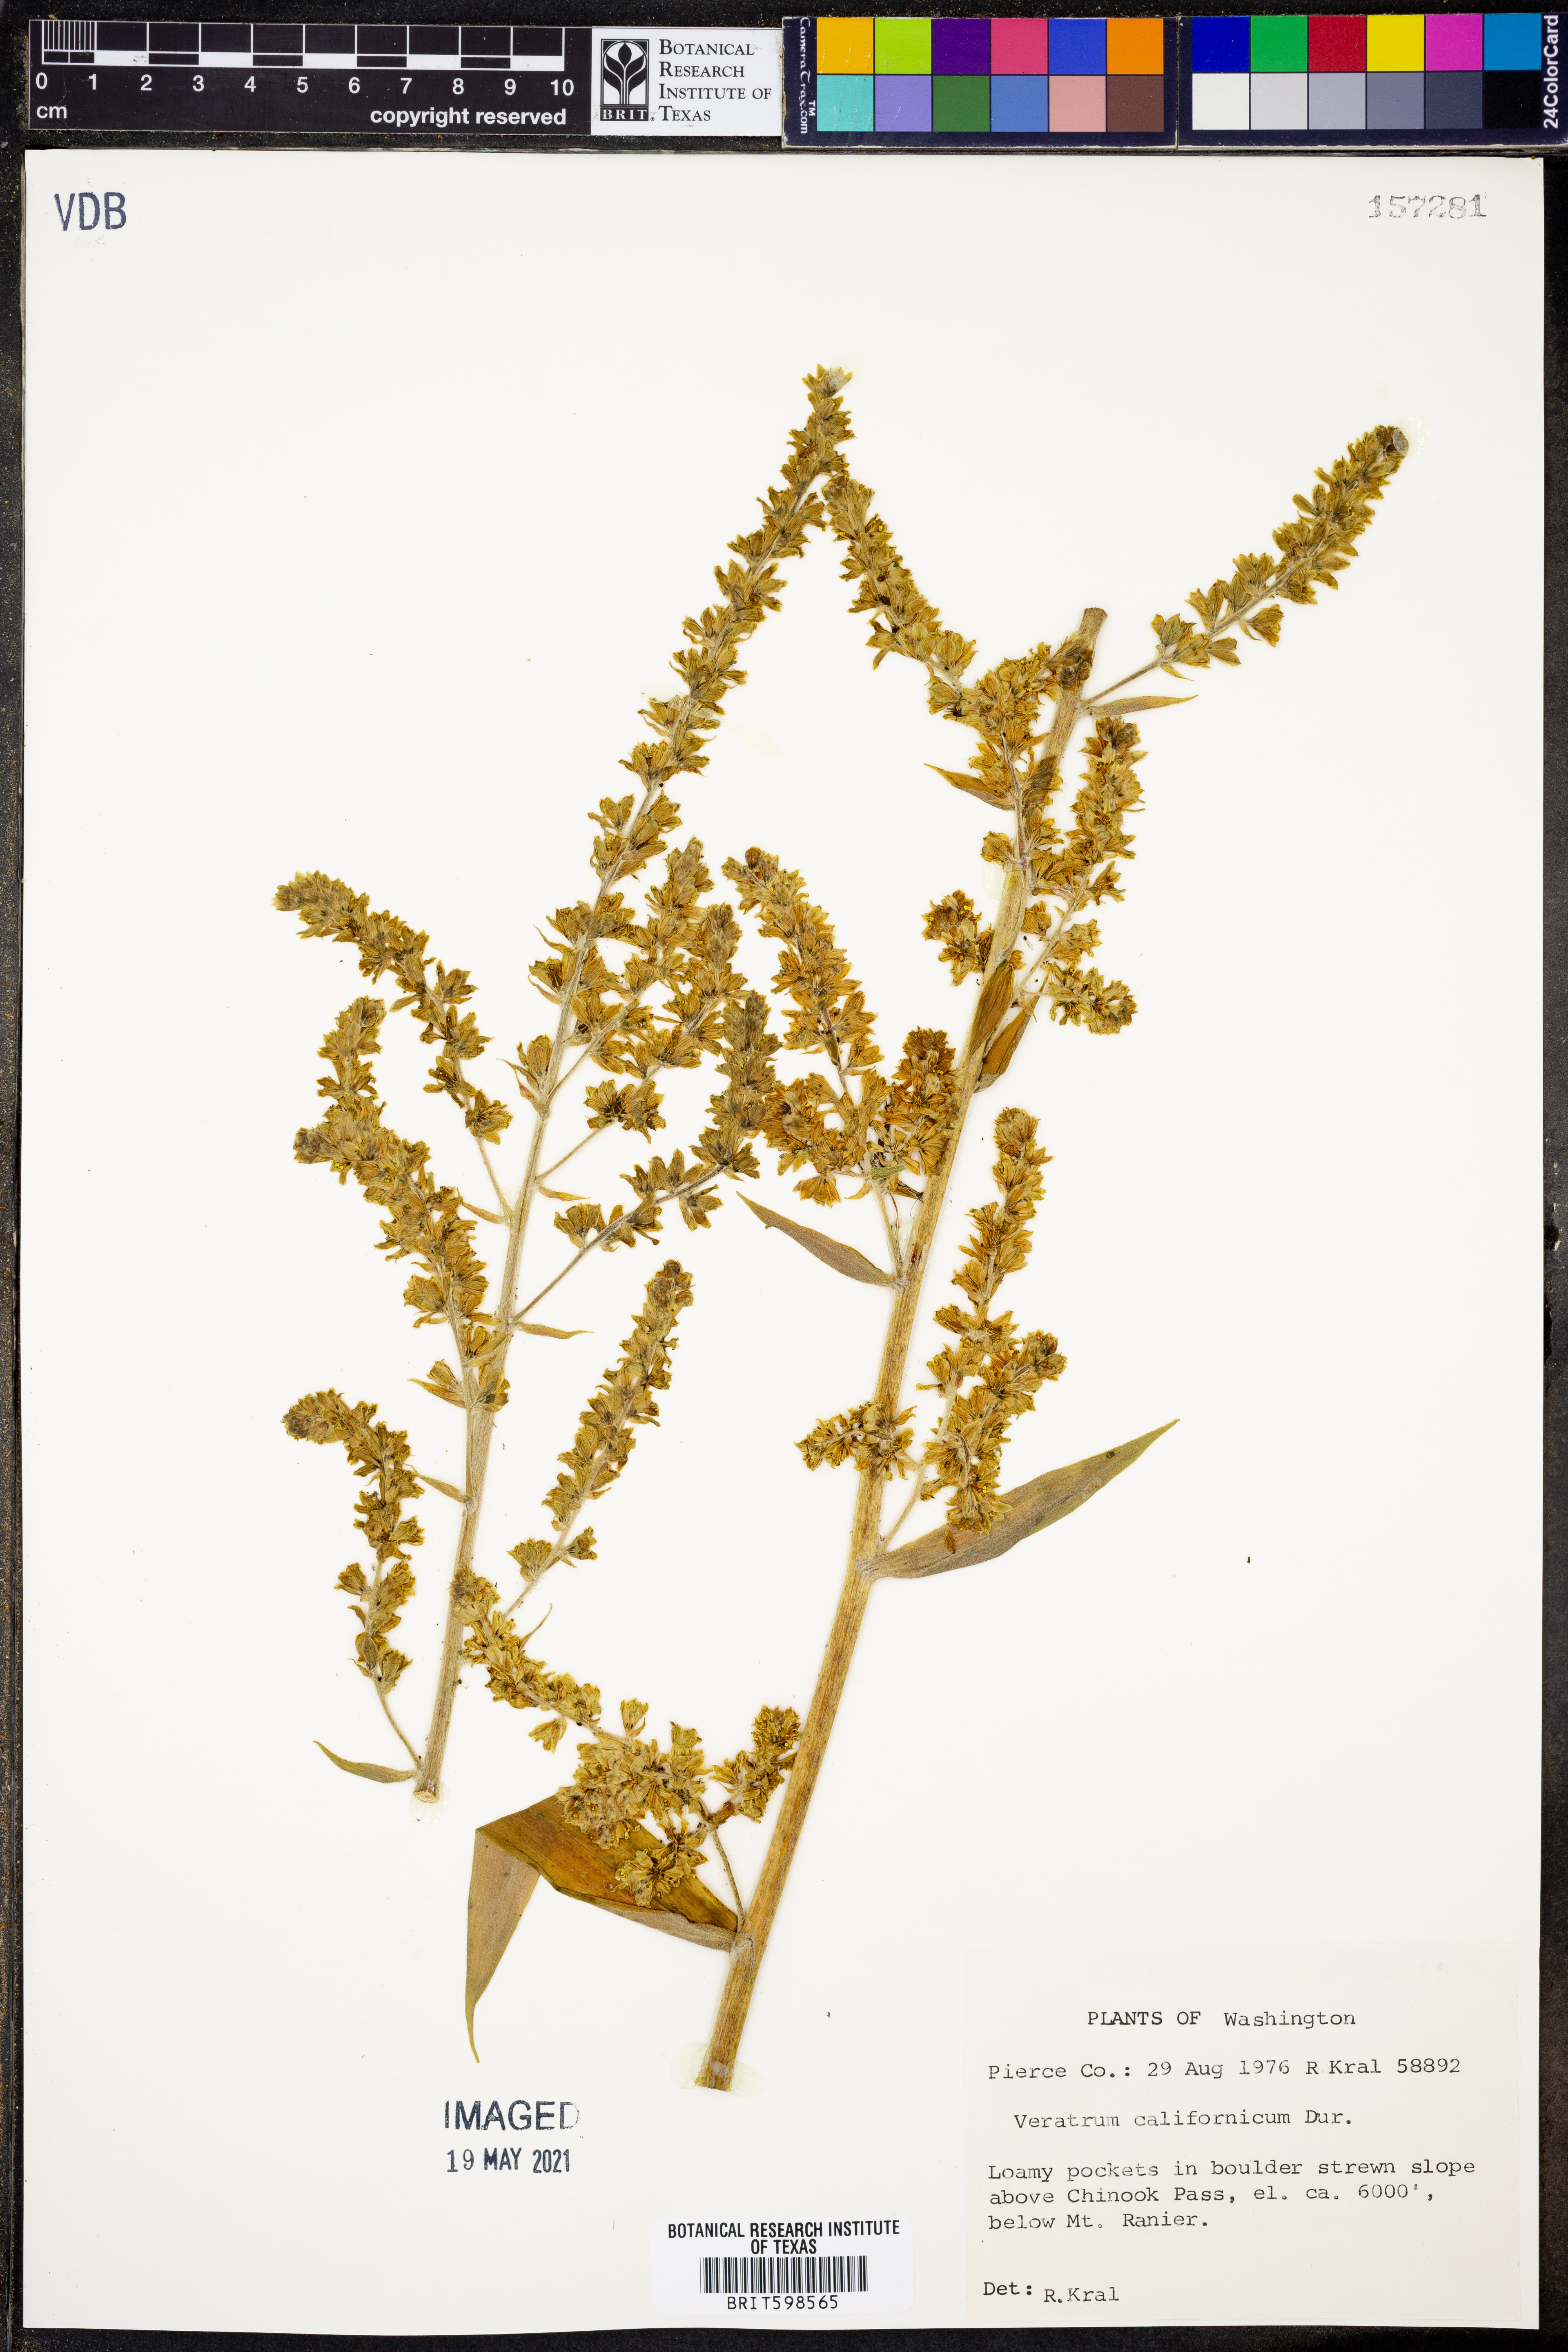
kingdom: Plantae
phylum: Tracheophyta
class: Liliopsida
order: Liliales
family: Melanthiaceae
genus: Veratrum
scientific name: Veratrum californicum
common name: California veratrum
